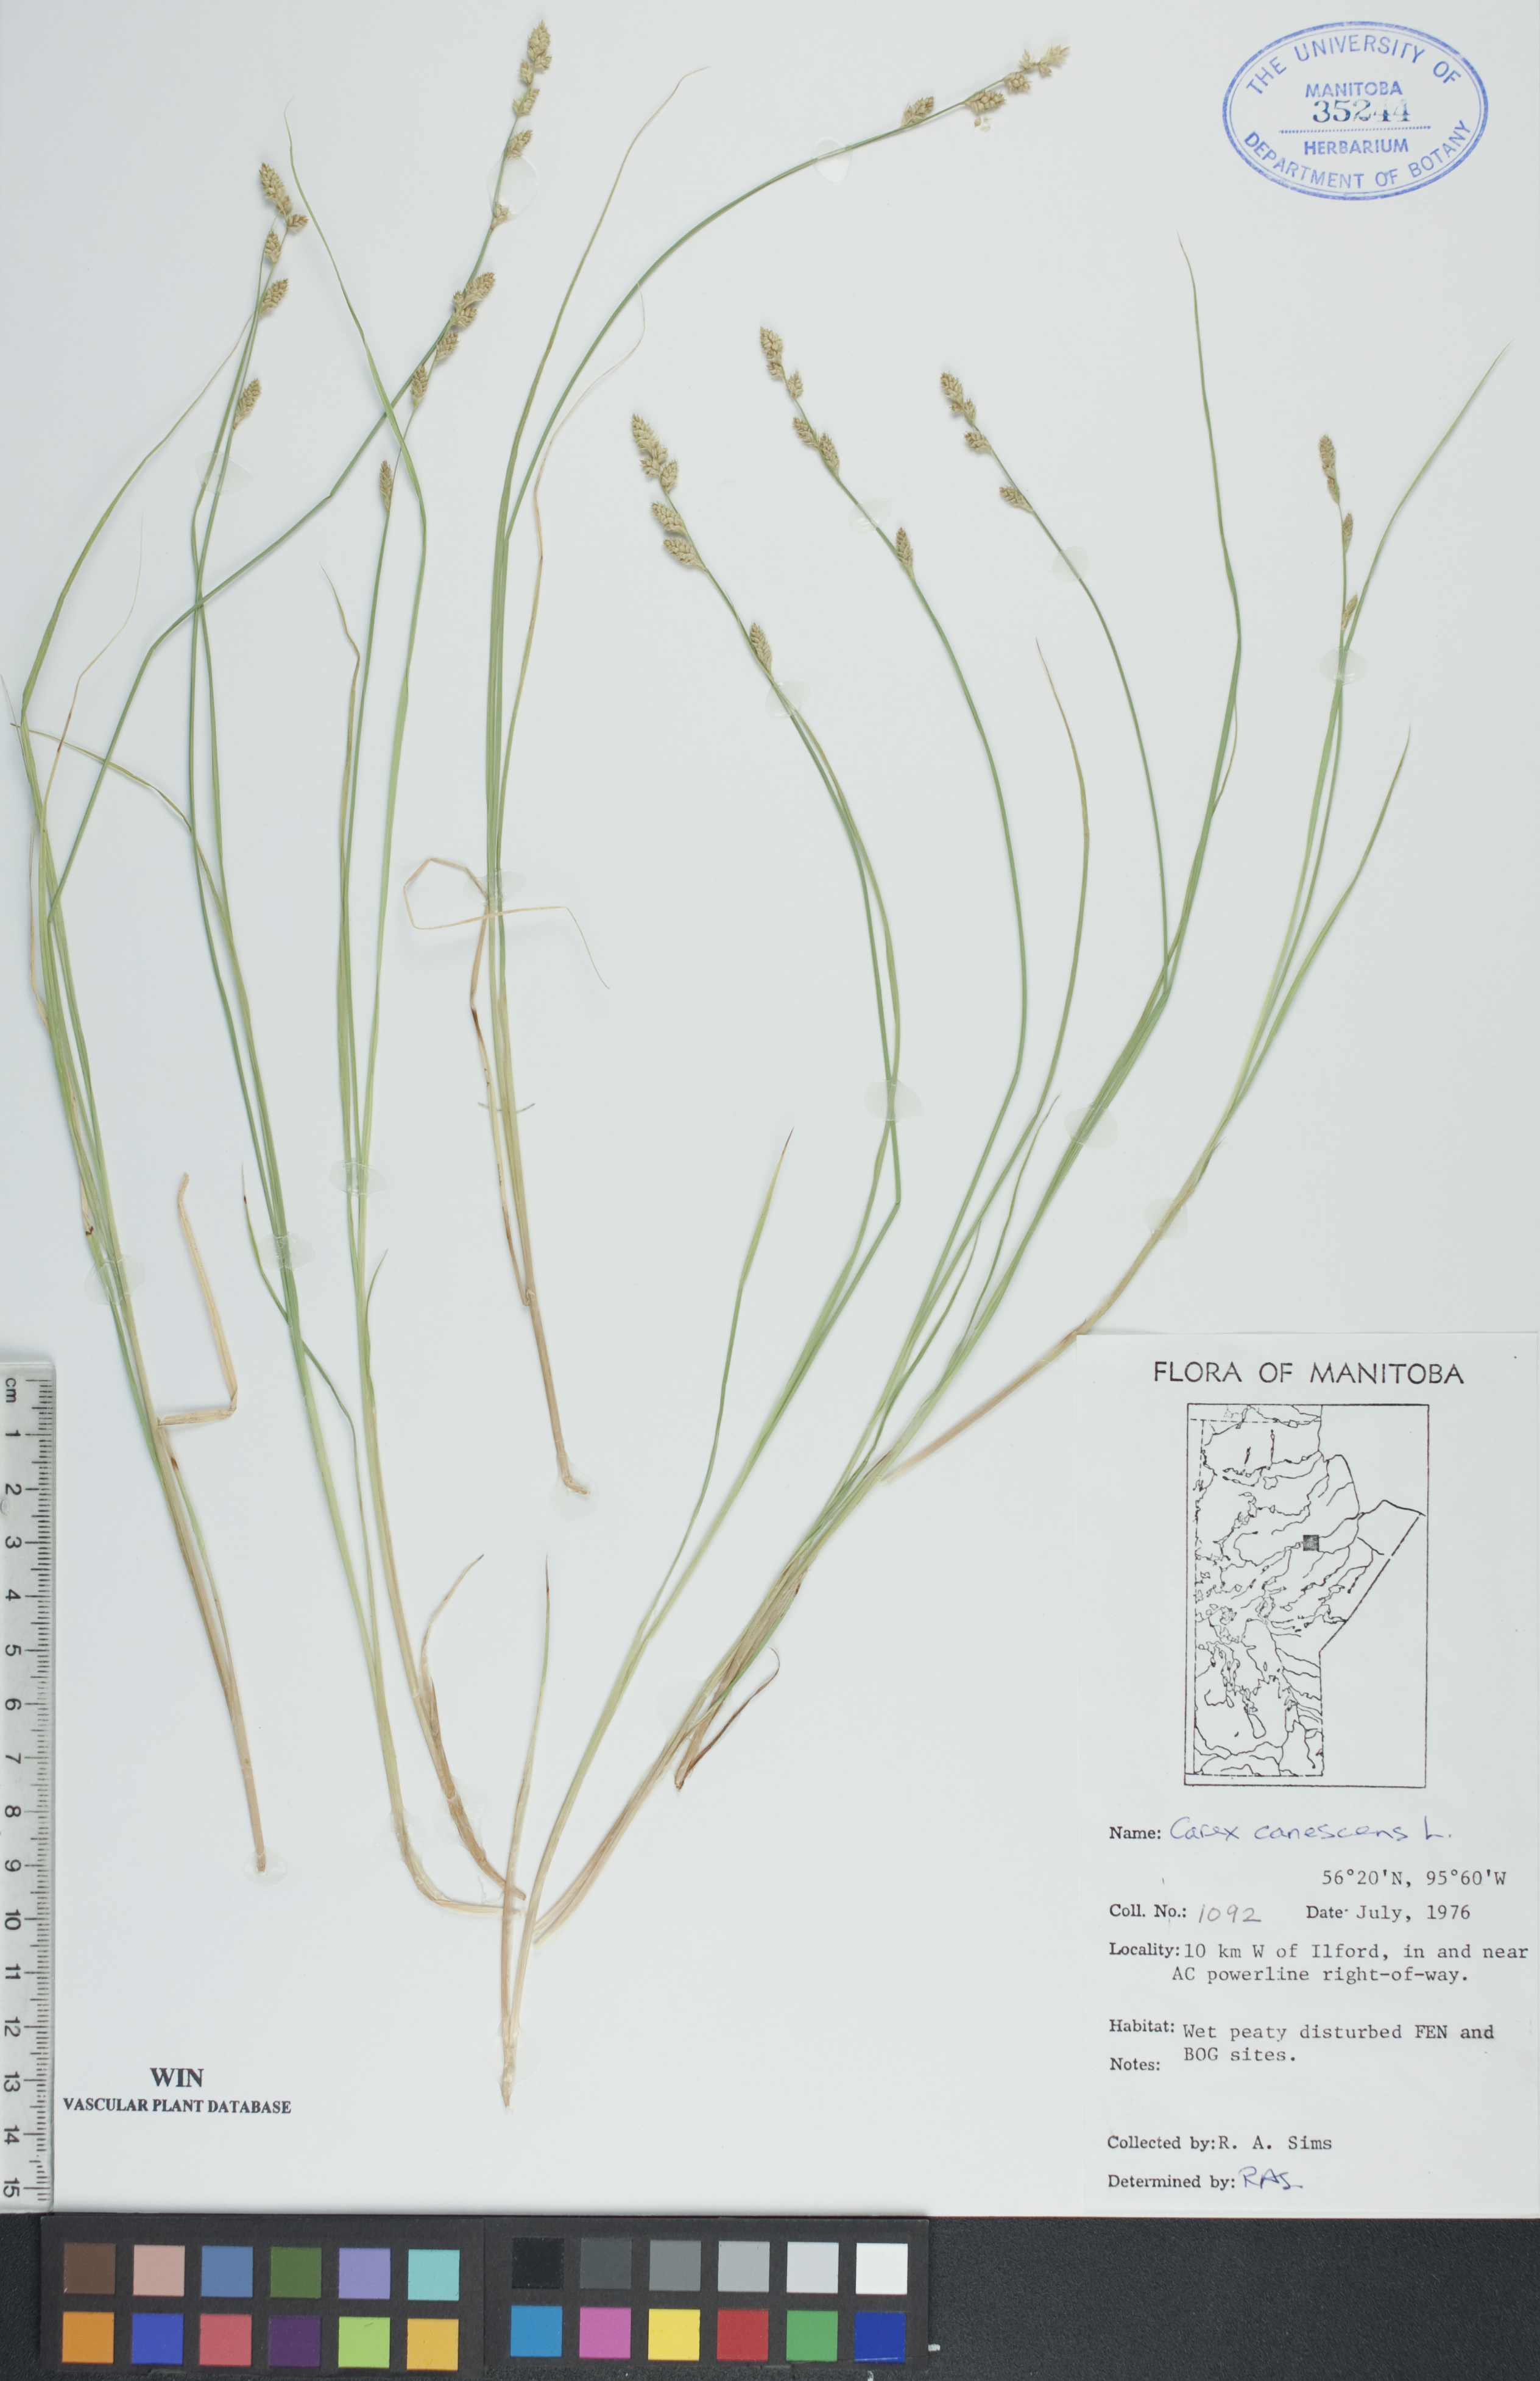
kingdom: Plantae
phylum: Tracheophyta
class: Liliopsida
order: Poales
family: Cyperaceae
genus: Carex
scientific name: Carex canescens
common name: White sedge
